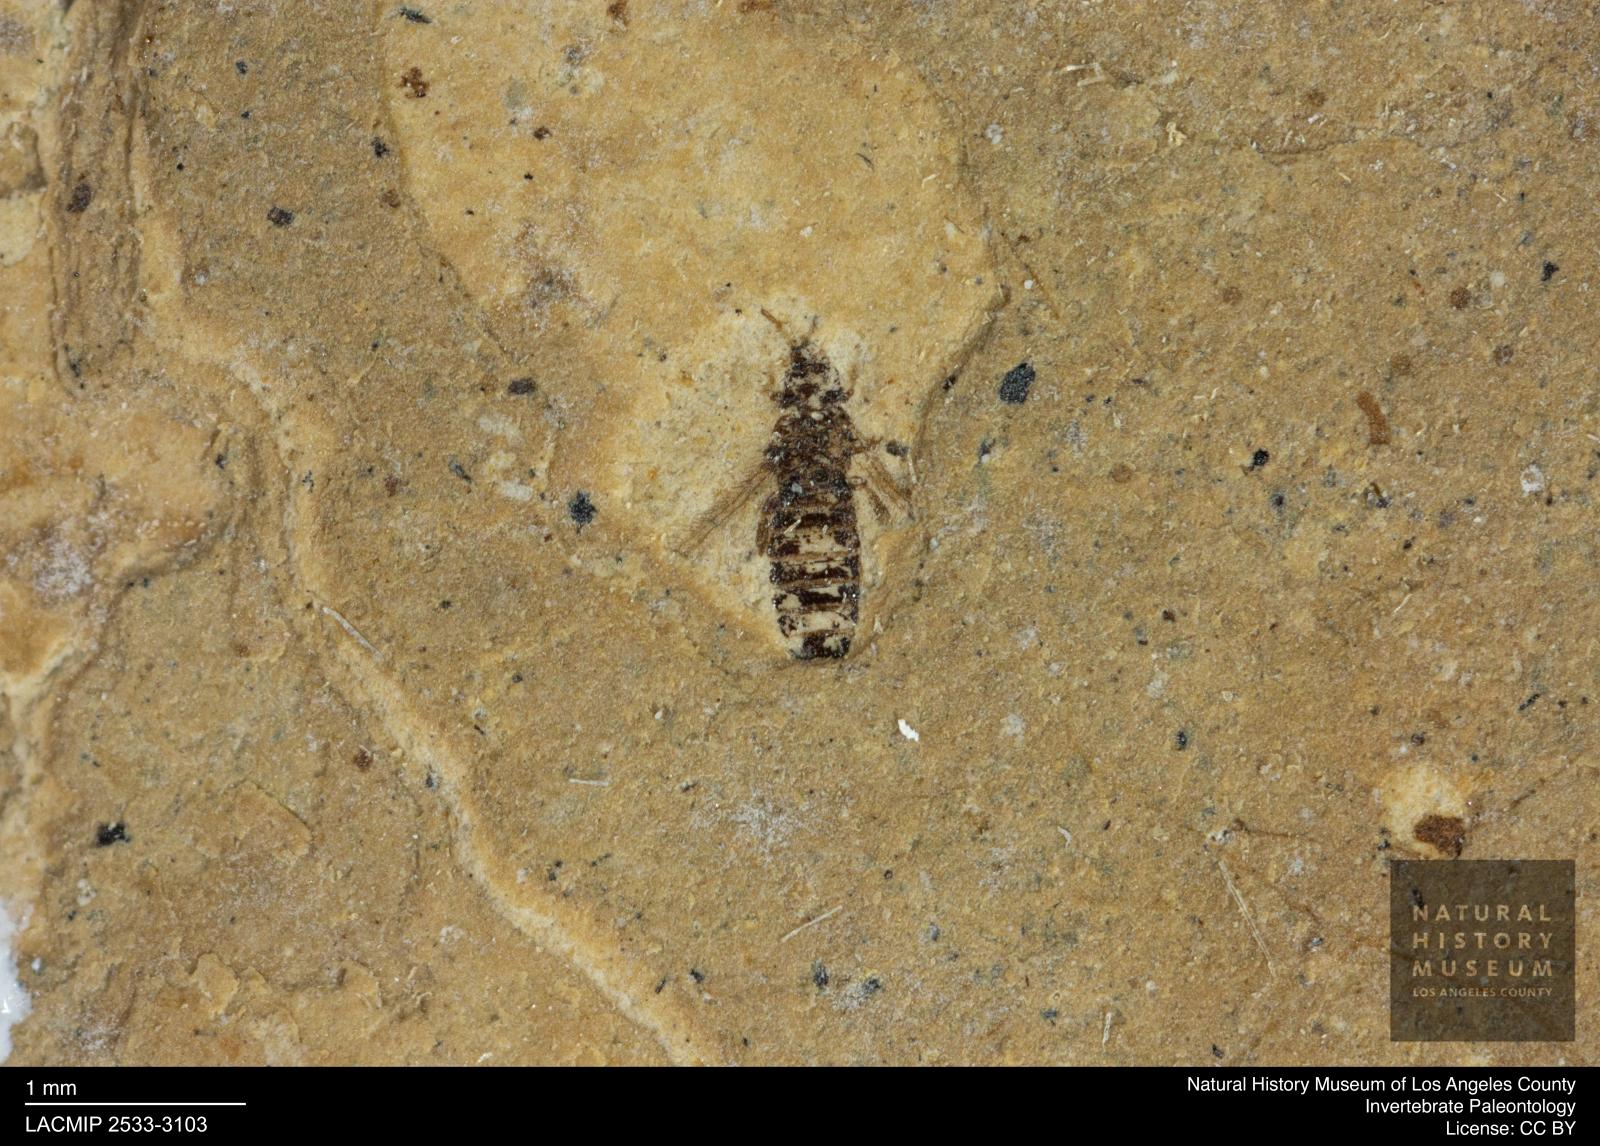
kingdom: Animalia
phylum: Arthropoda
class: Insecta
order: Thysanoptera
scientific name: Thysanoptera
